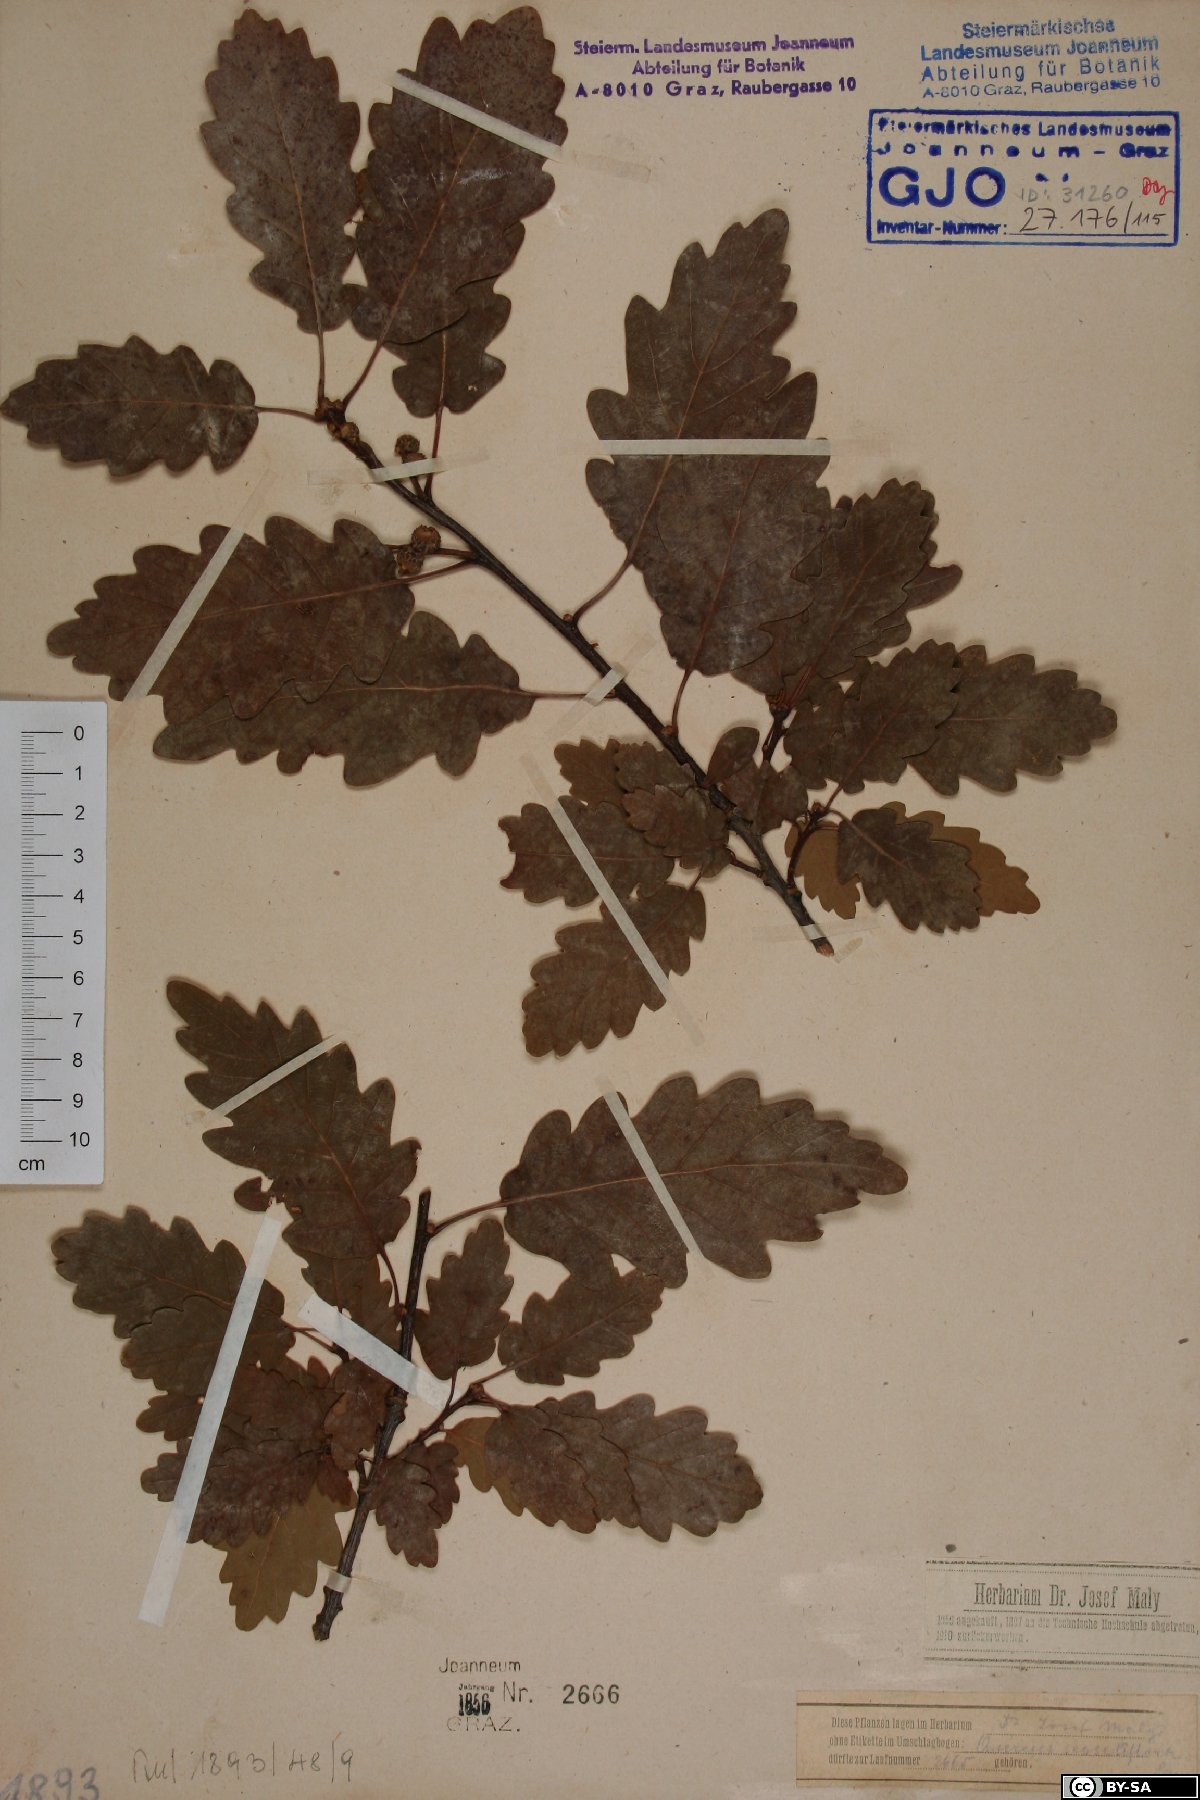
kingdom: Plantae
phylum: Tracheophyta
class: Magnoliopsida
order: Fagales
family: Fagaceae
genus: Quercus
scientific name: Quercus petraea
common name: Sessile oak
